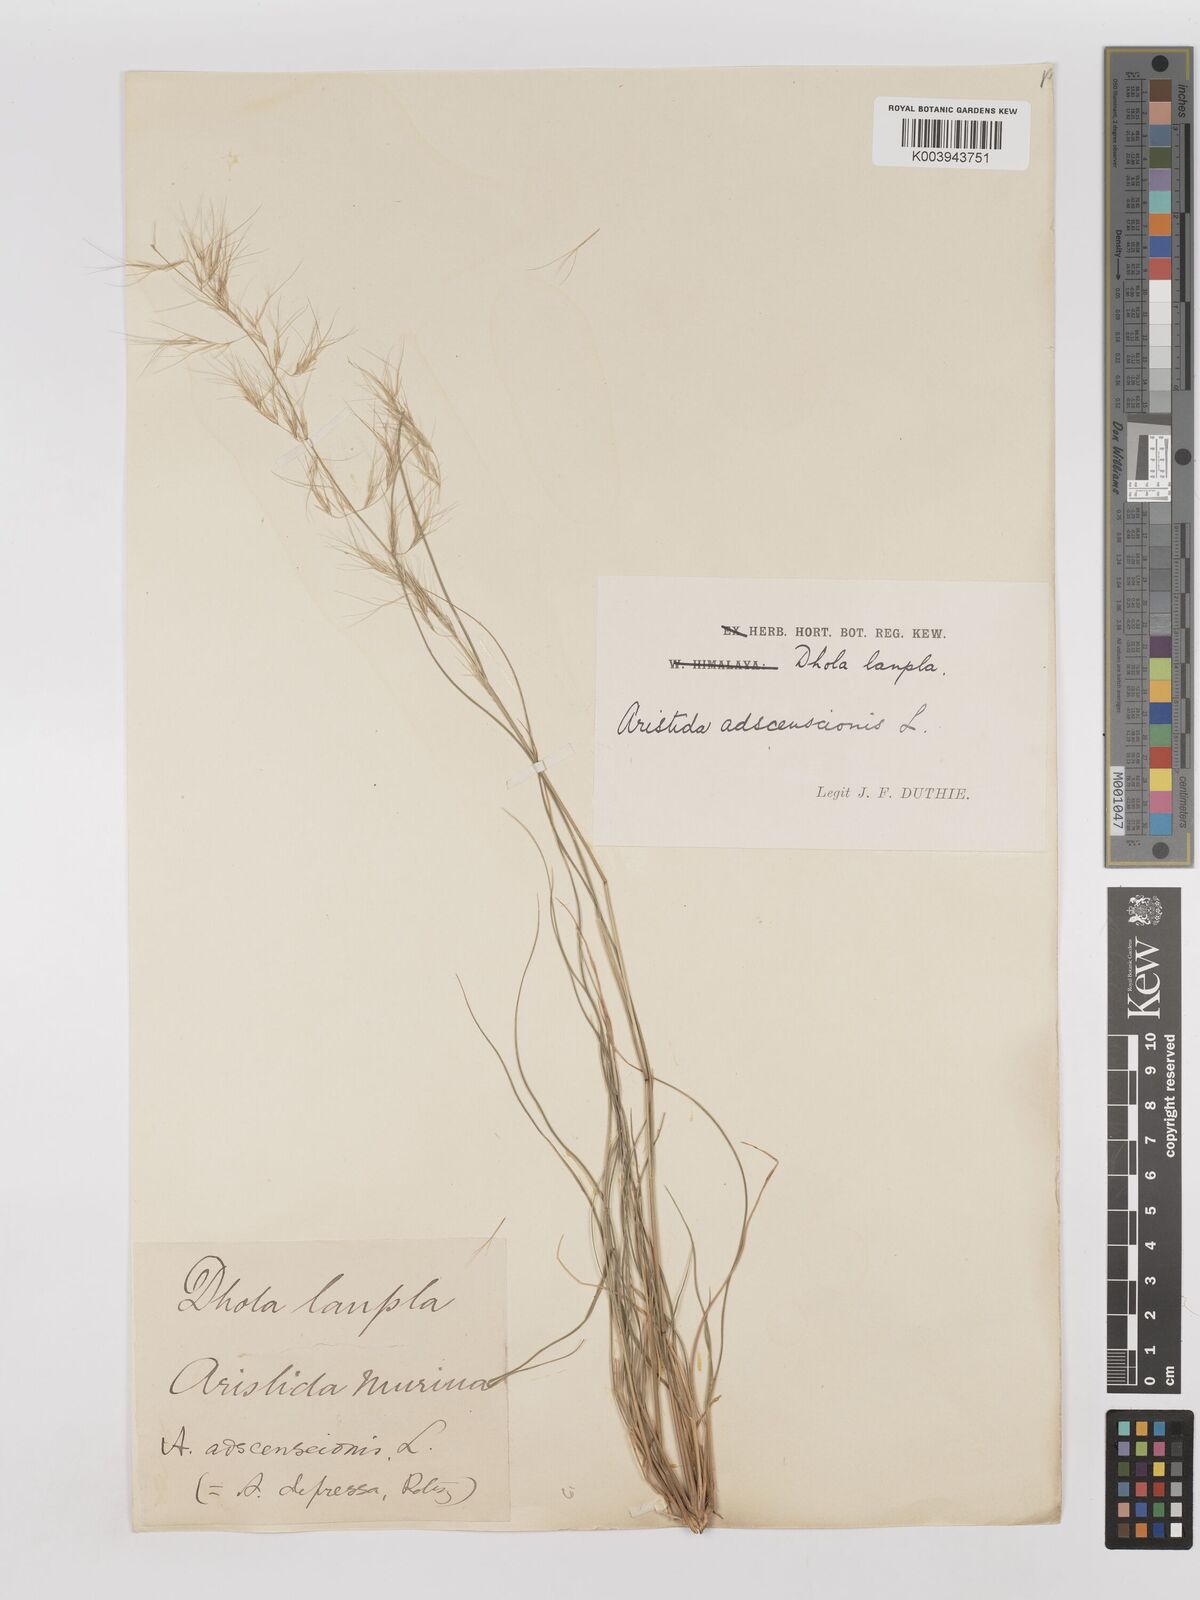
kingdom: Plantae
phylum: Tracheophyta
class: Liliopsida
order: Poales
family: Poaceae
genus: Aristida
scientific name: Aristida adscensionis
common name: Sixweeks threeawn
